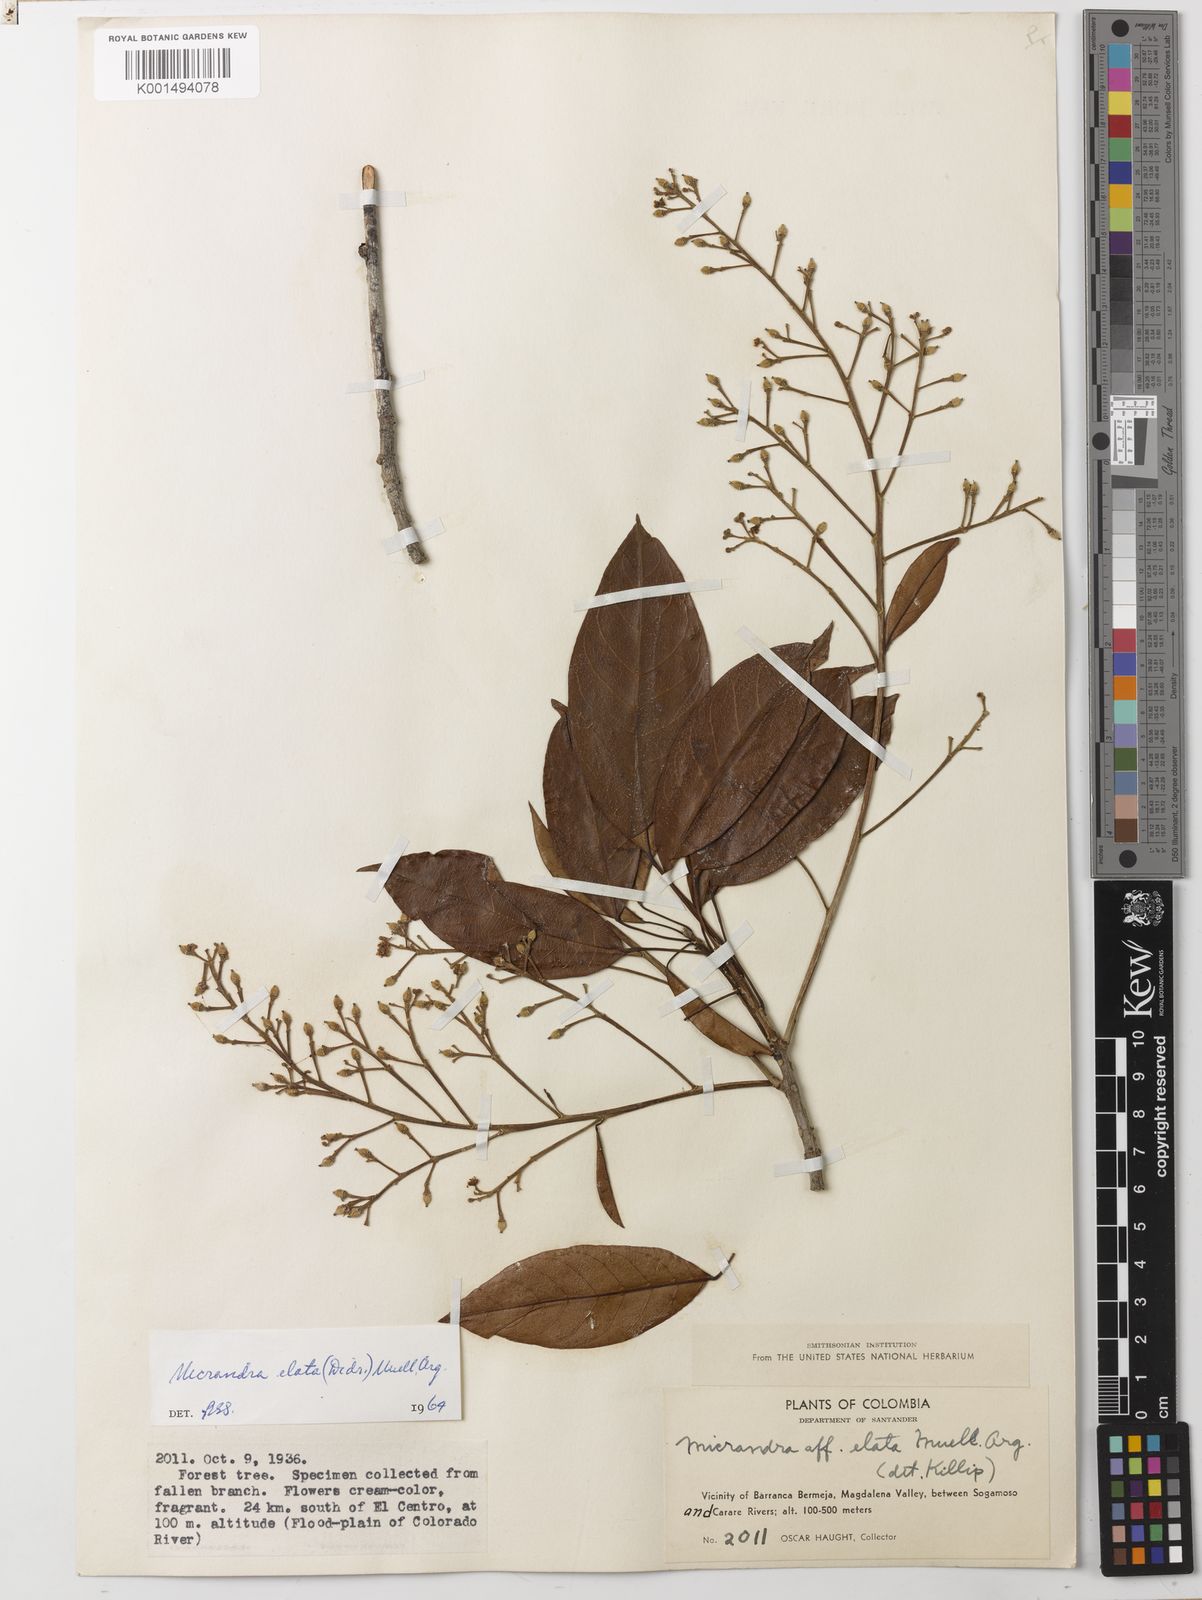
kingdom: Plantae
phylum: Tracheophyta
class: Magnoliopsida
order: Malpighiales
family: Euphorbiaceae
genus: Micrandra
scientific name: Micrandra elata
